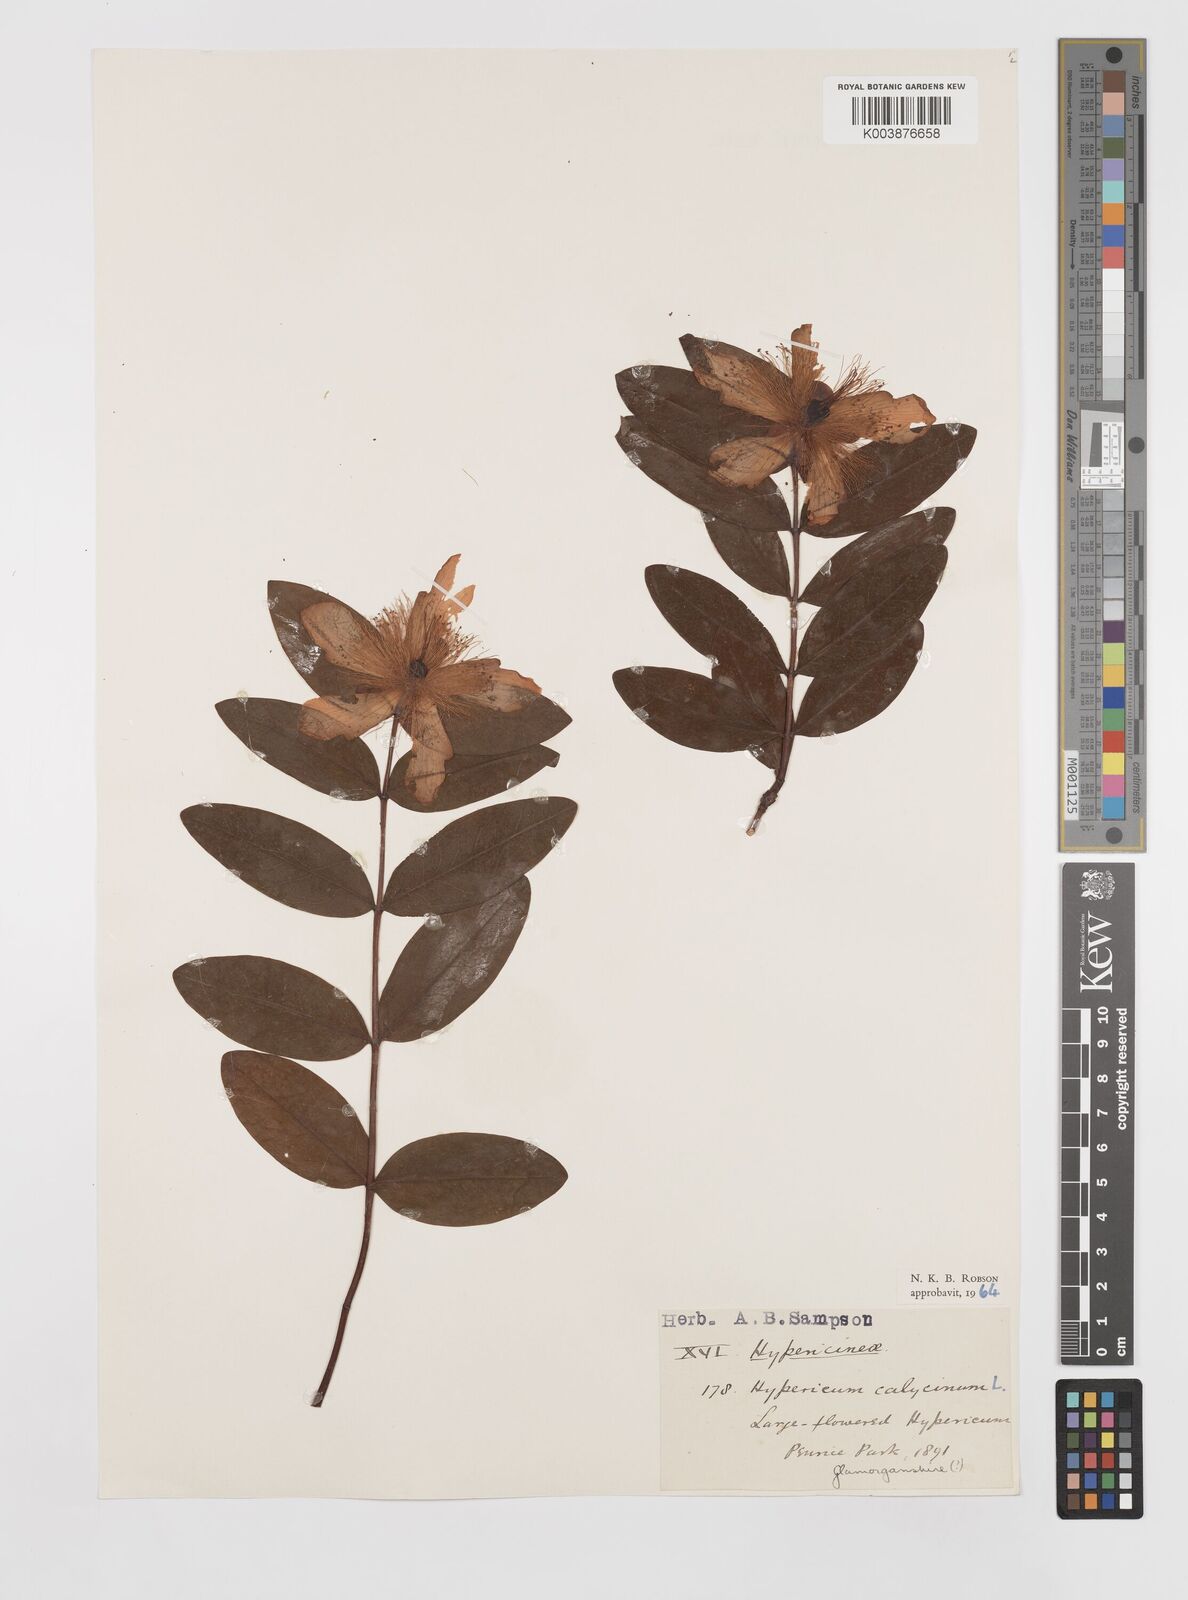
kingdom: Plantae
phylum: Tracheophyta
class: Magnoliopsida
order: Malpighiales
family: Hypericaceae
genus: Hypericum
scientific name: Hypericum calycinum
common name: Rose-of-sharon
